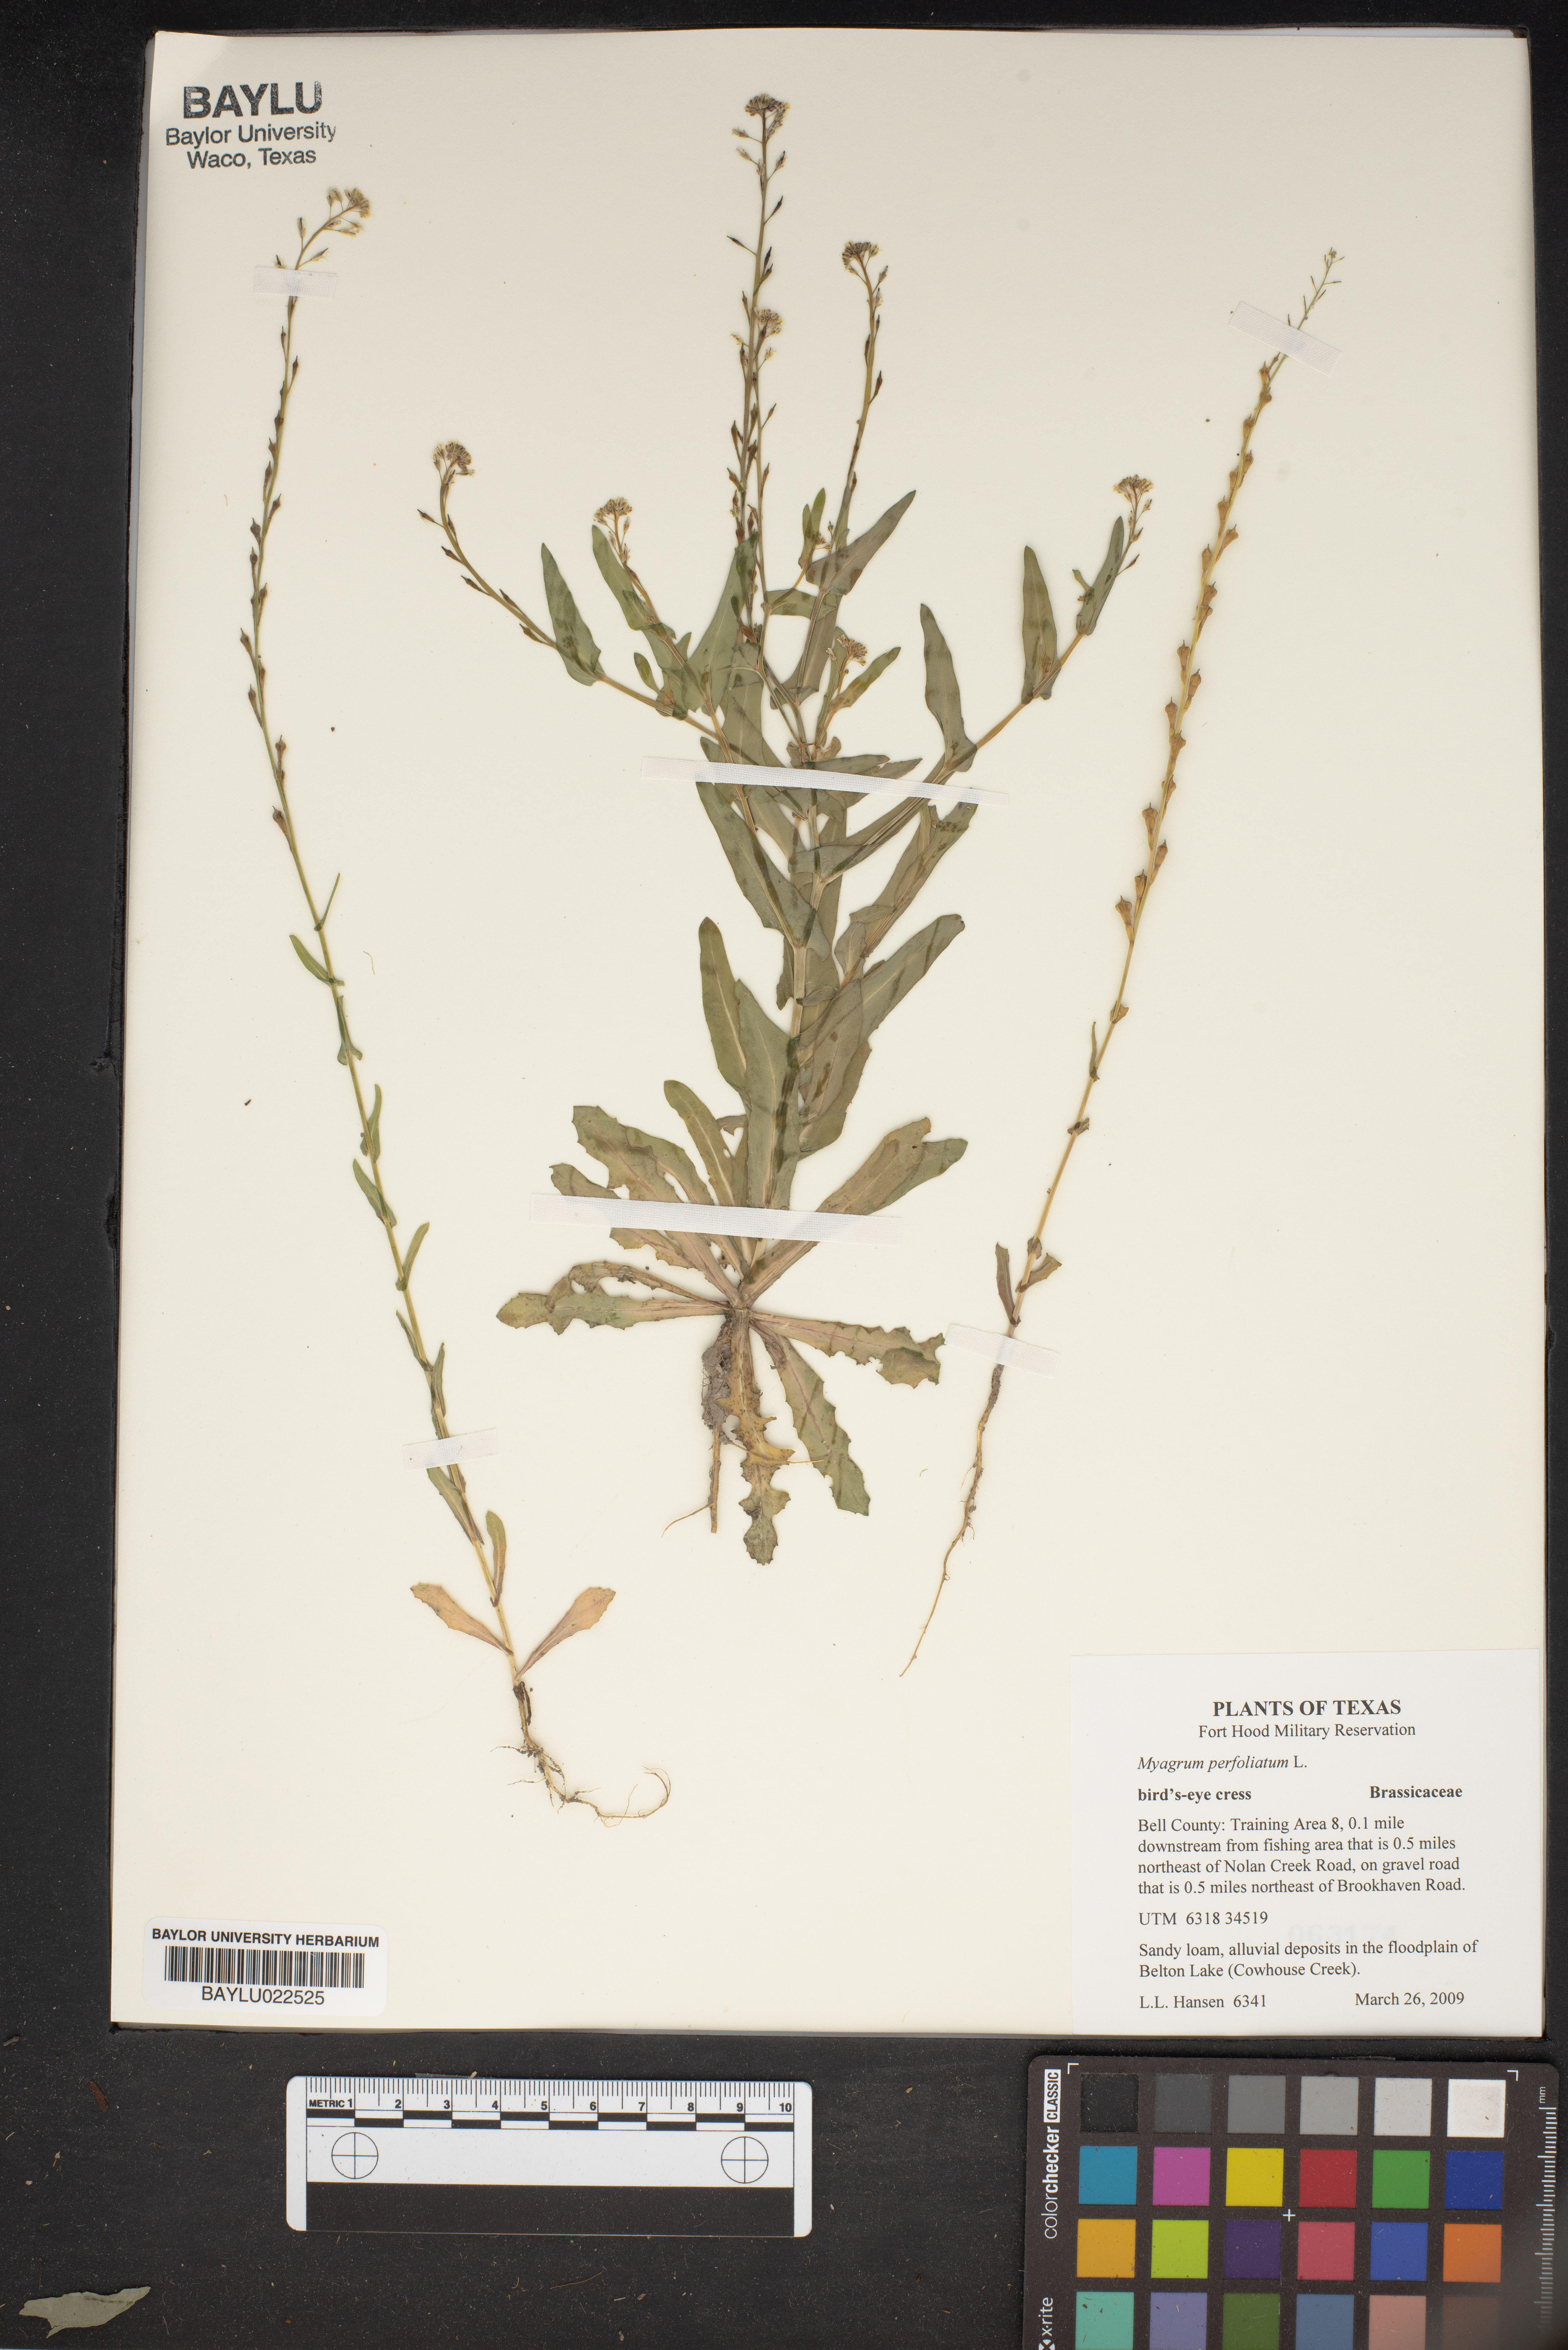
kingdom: Plantae
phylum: Tracheophyta
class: Magnoliopsida
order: Brassicales
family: Brassicaceae
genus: Myagrum
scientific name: Myagrum perfoliatum
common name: Mitre cress
